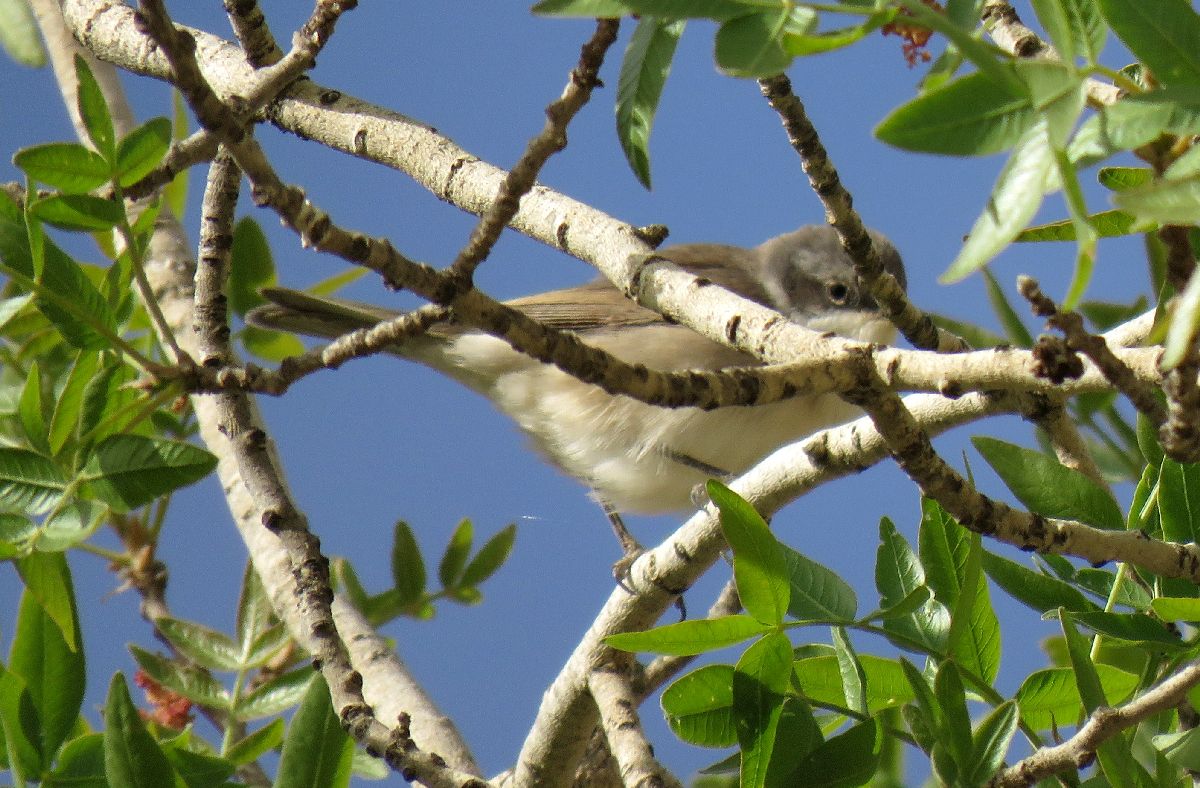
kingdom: Animalia
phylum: Chordata
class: Aves
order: Passeriformes
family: Sylviidae
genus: Sylvia
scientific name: Sylvia curruca
